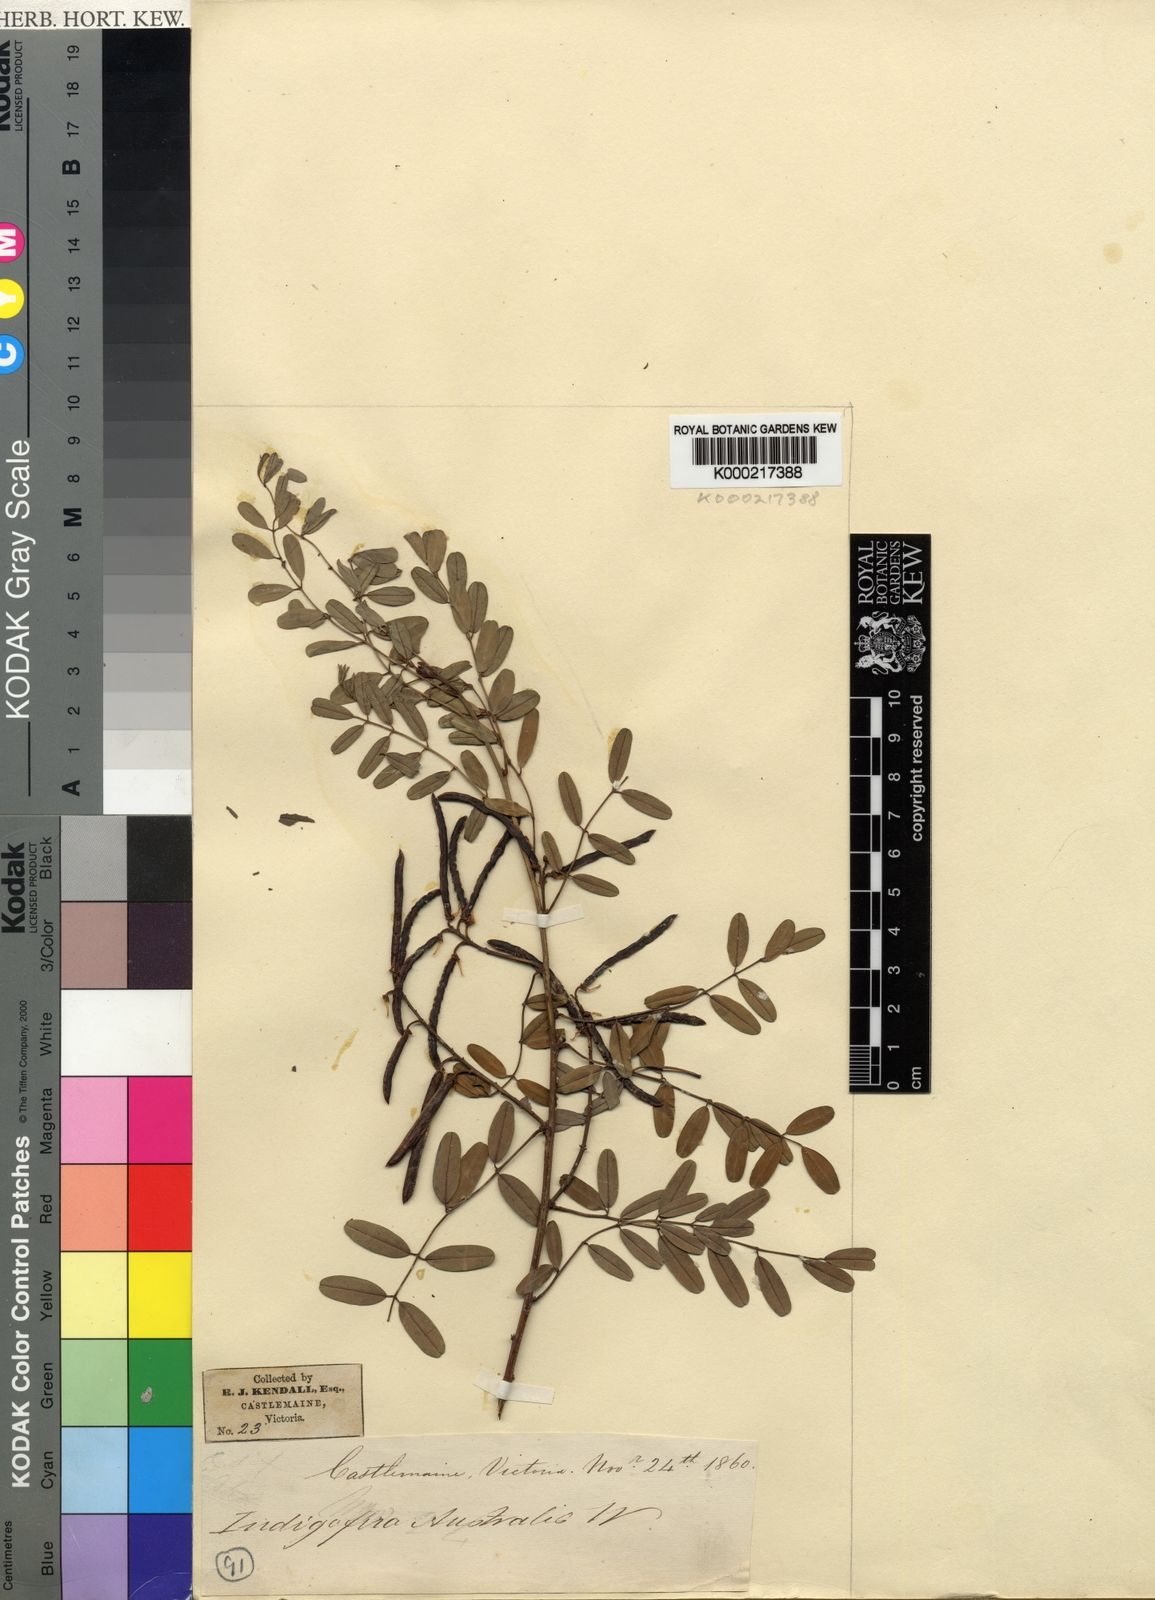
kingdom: Plantae
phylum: Tracheophyta
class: Magnoliopsida
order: Fabales
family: Fabaceae
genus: Indigofera
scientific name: Indigofera australis
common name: Australian indigo
